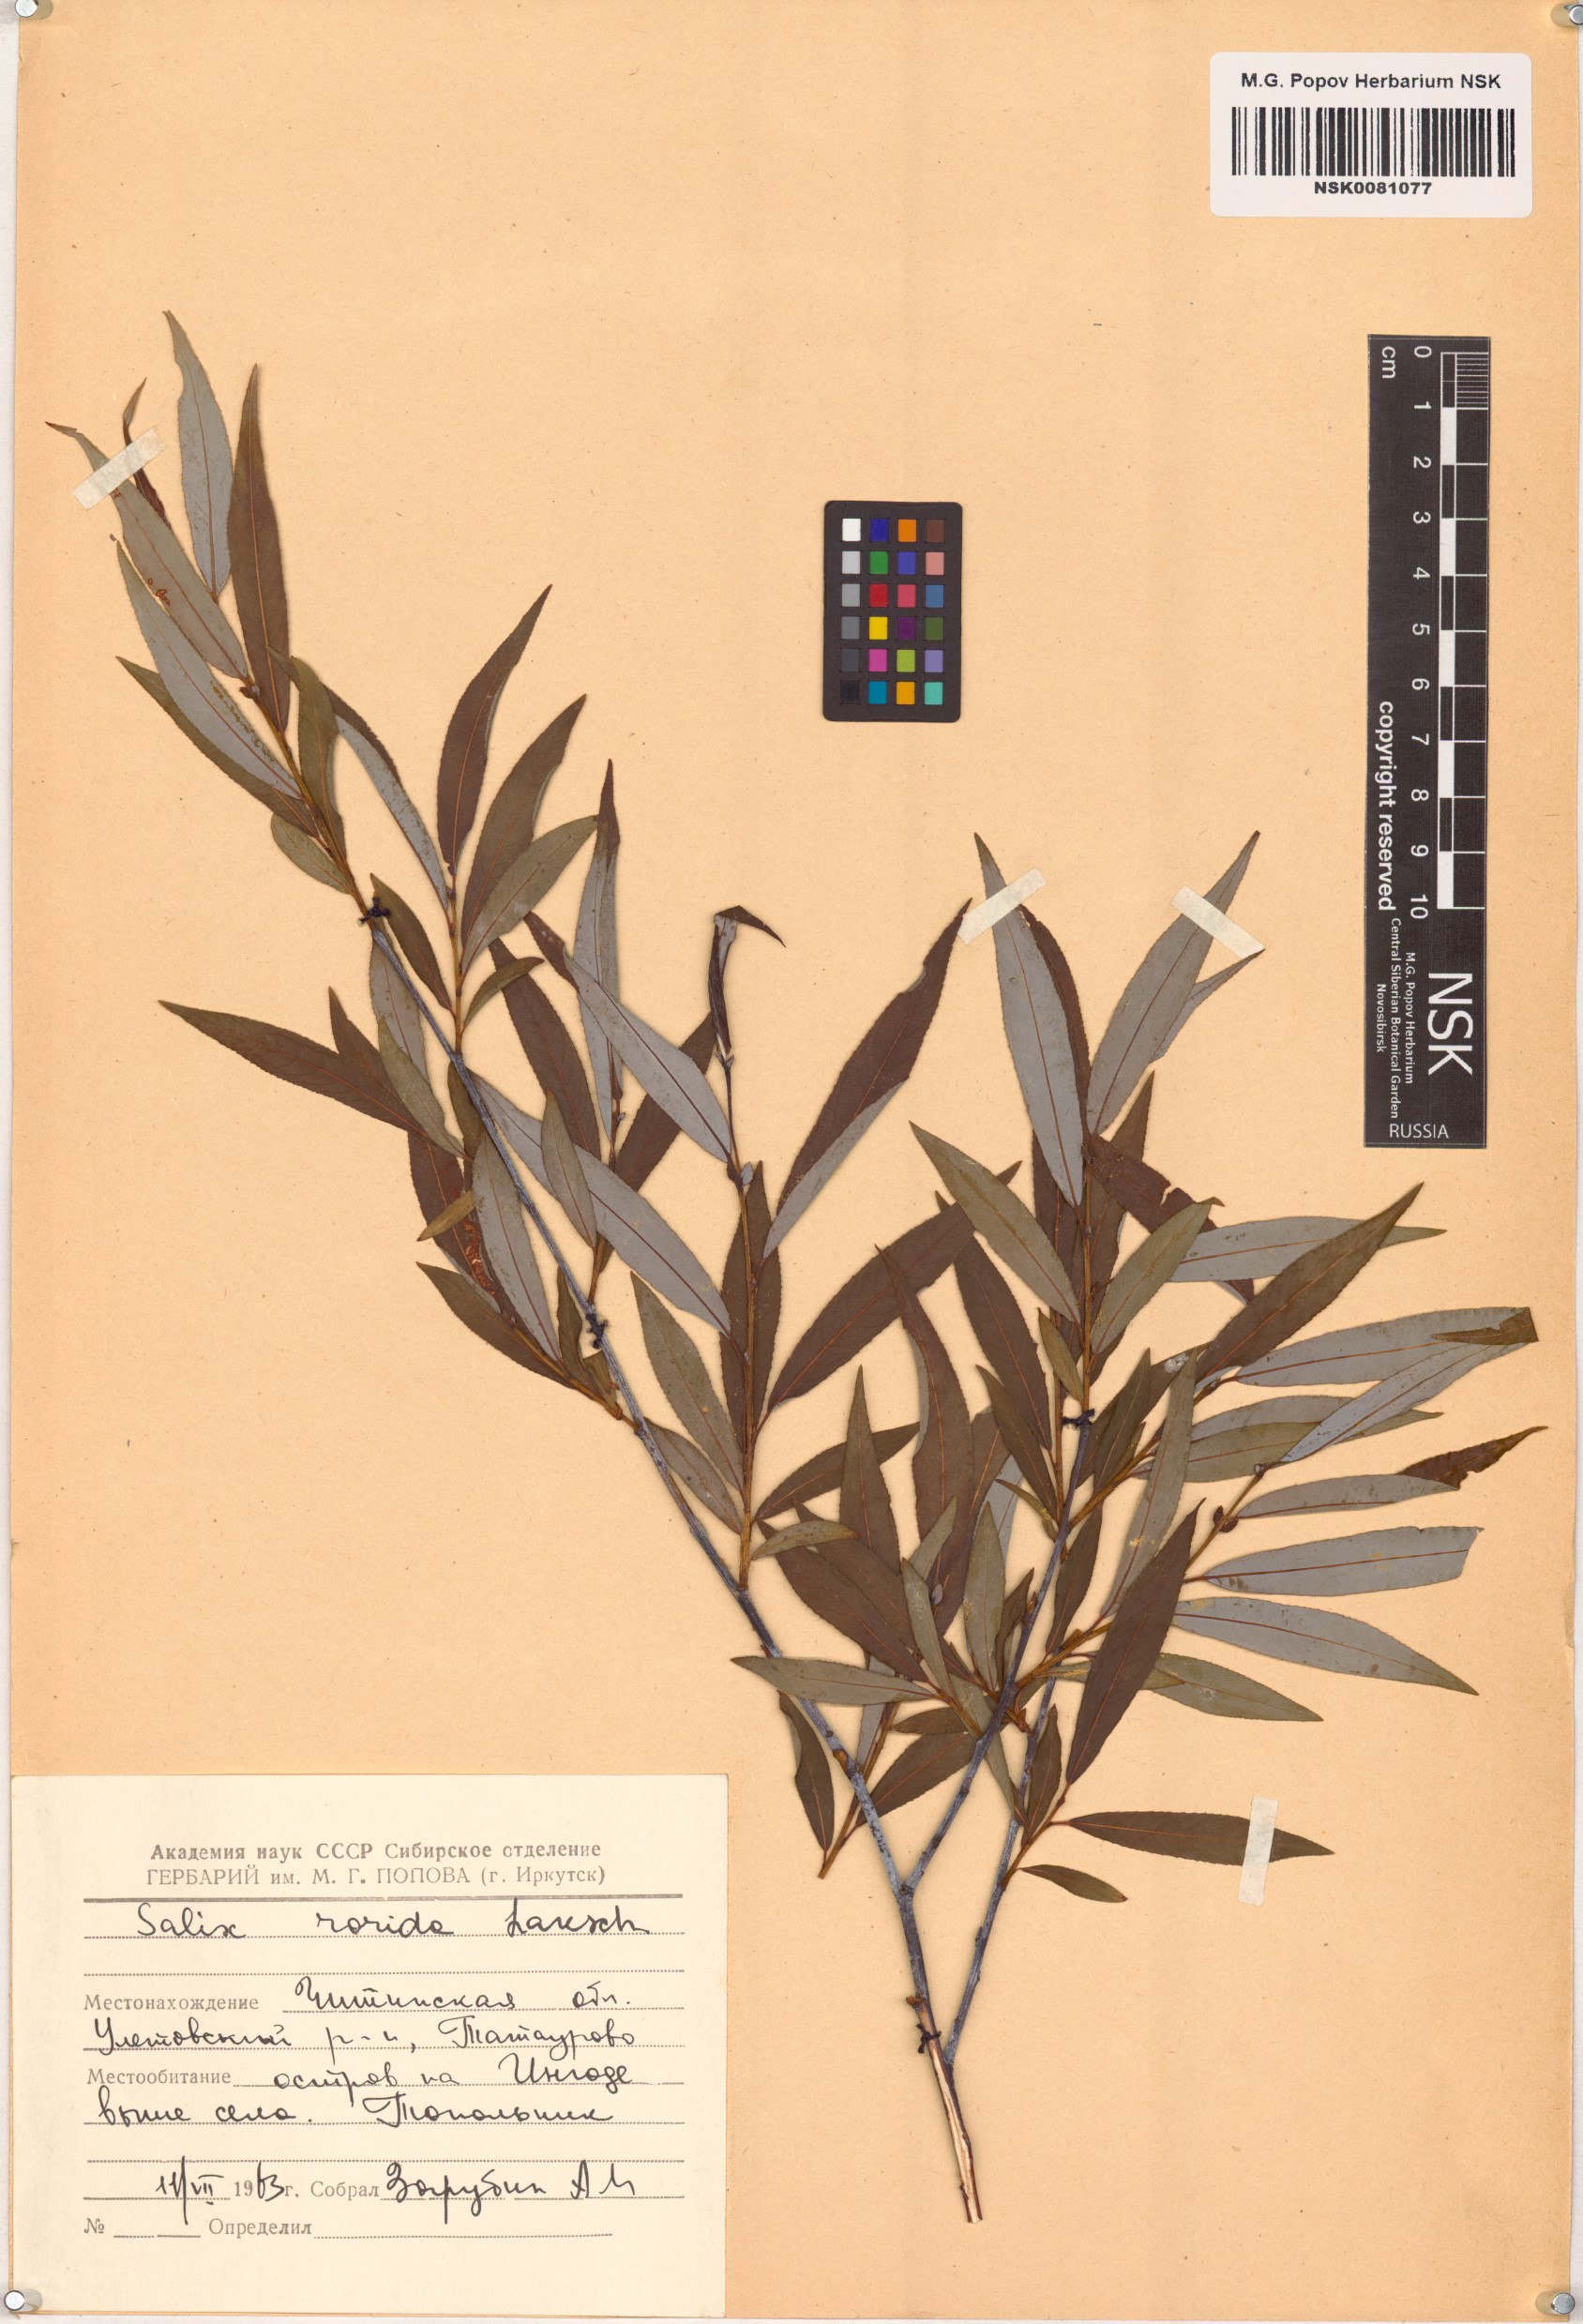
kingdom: Plantae
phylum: Tracheophyta
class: Magnoliopsida
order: Malpighiales
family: Salicaceae
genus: Salix
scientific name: Salix rorida
